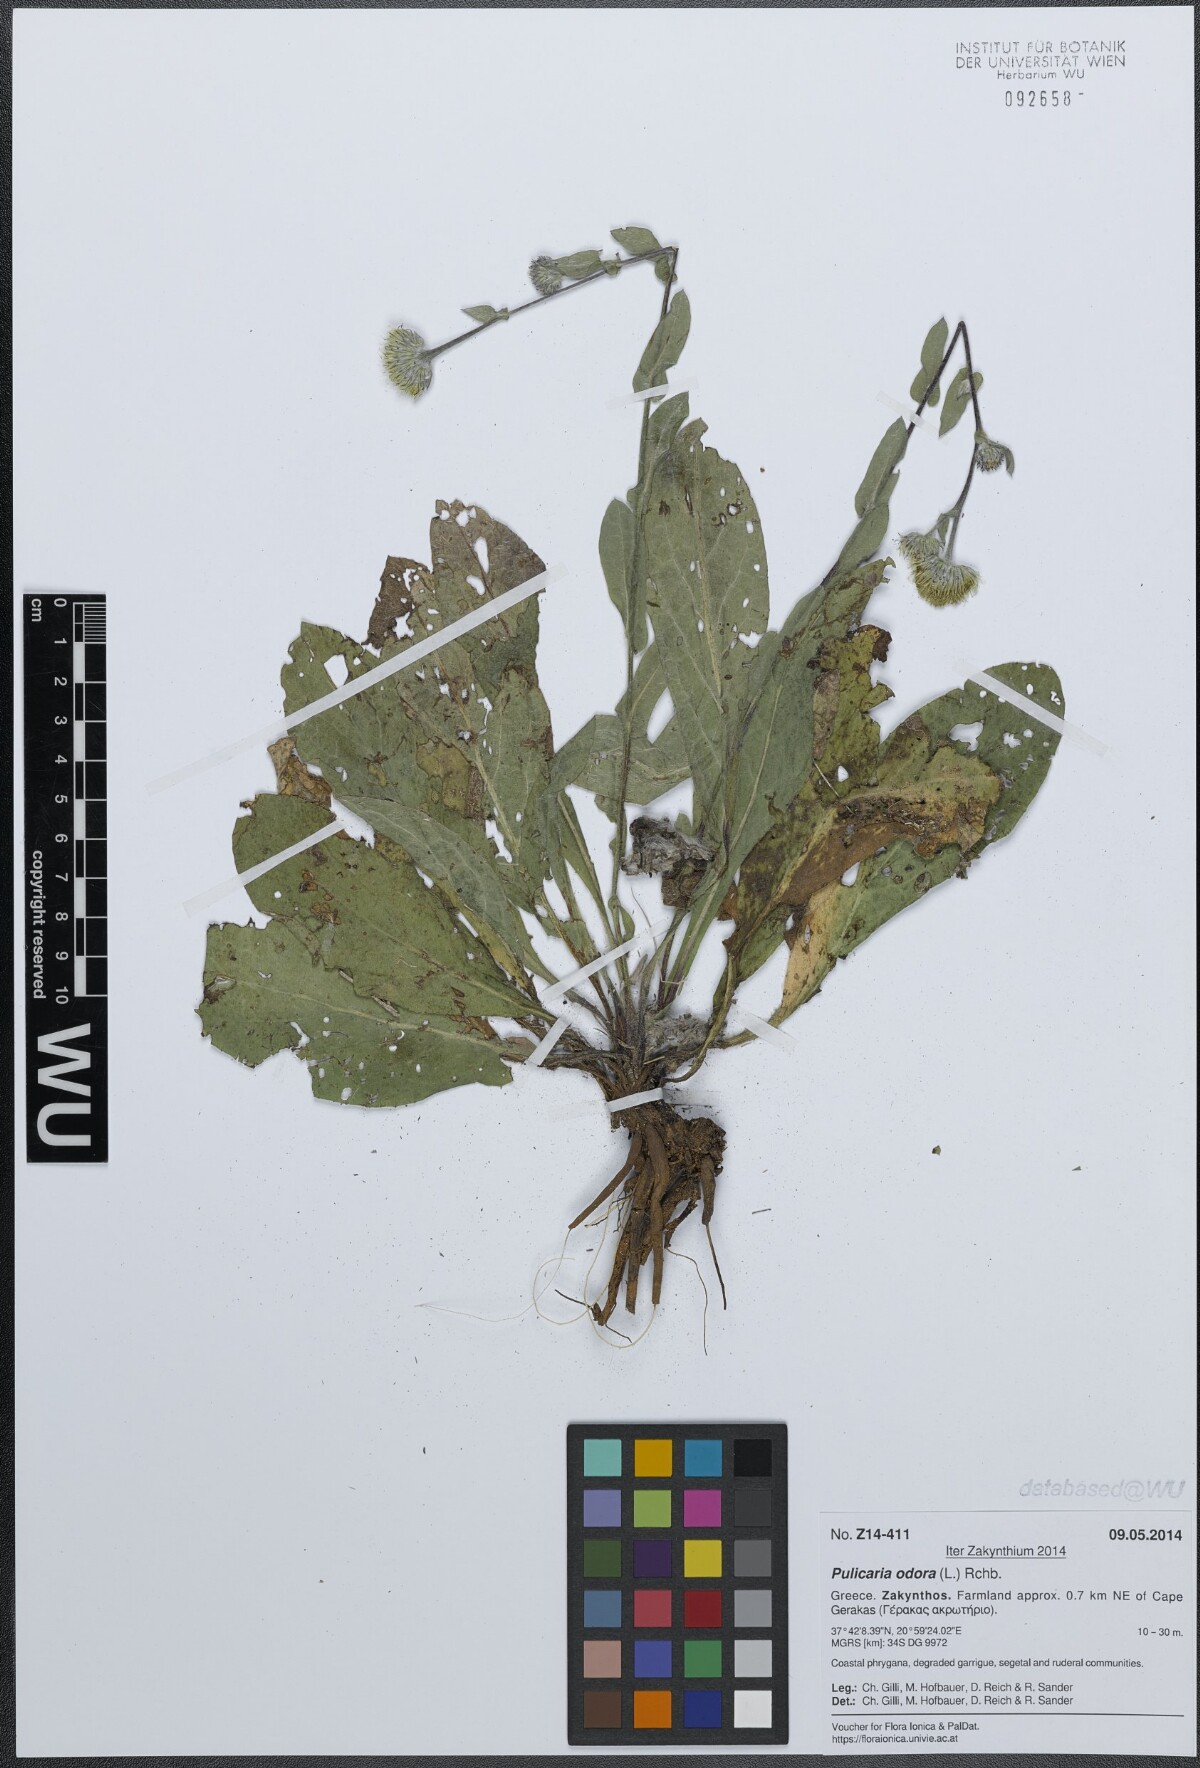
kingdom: Plantae
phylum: Tracheophyta
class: Magnoliopsida
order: Asterales
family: Asteraceae
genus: Pulicaria
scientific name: Pulicaria odora
